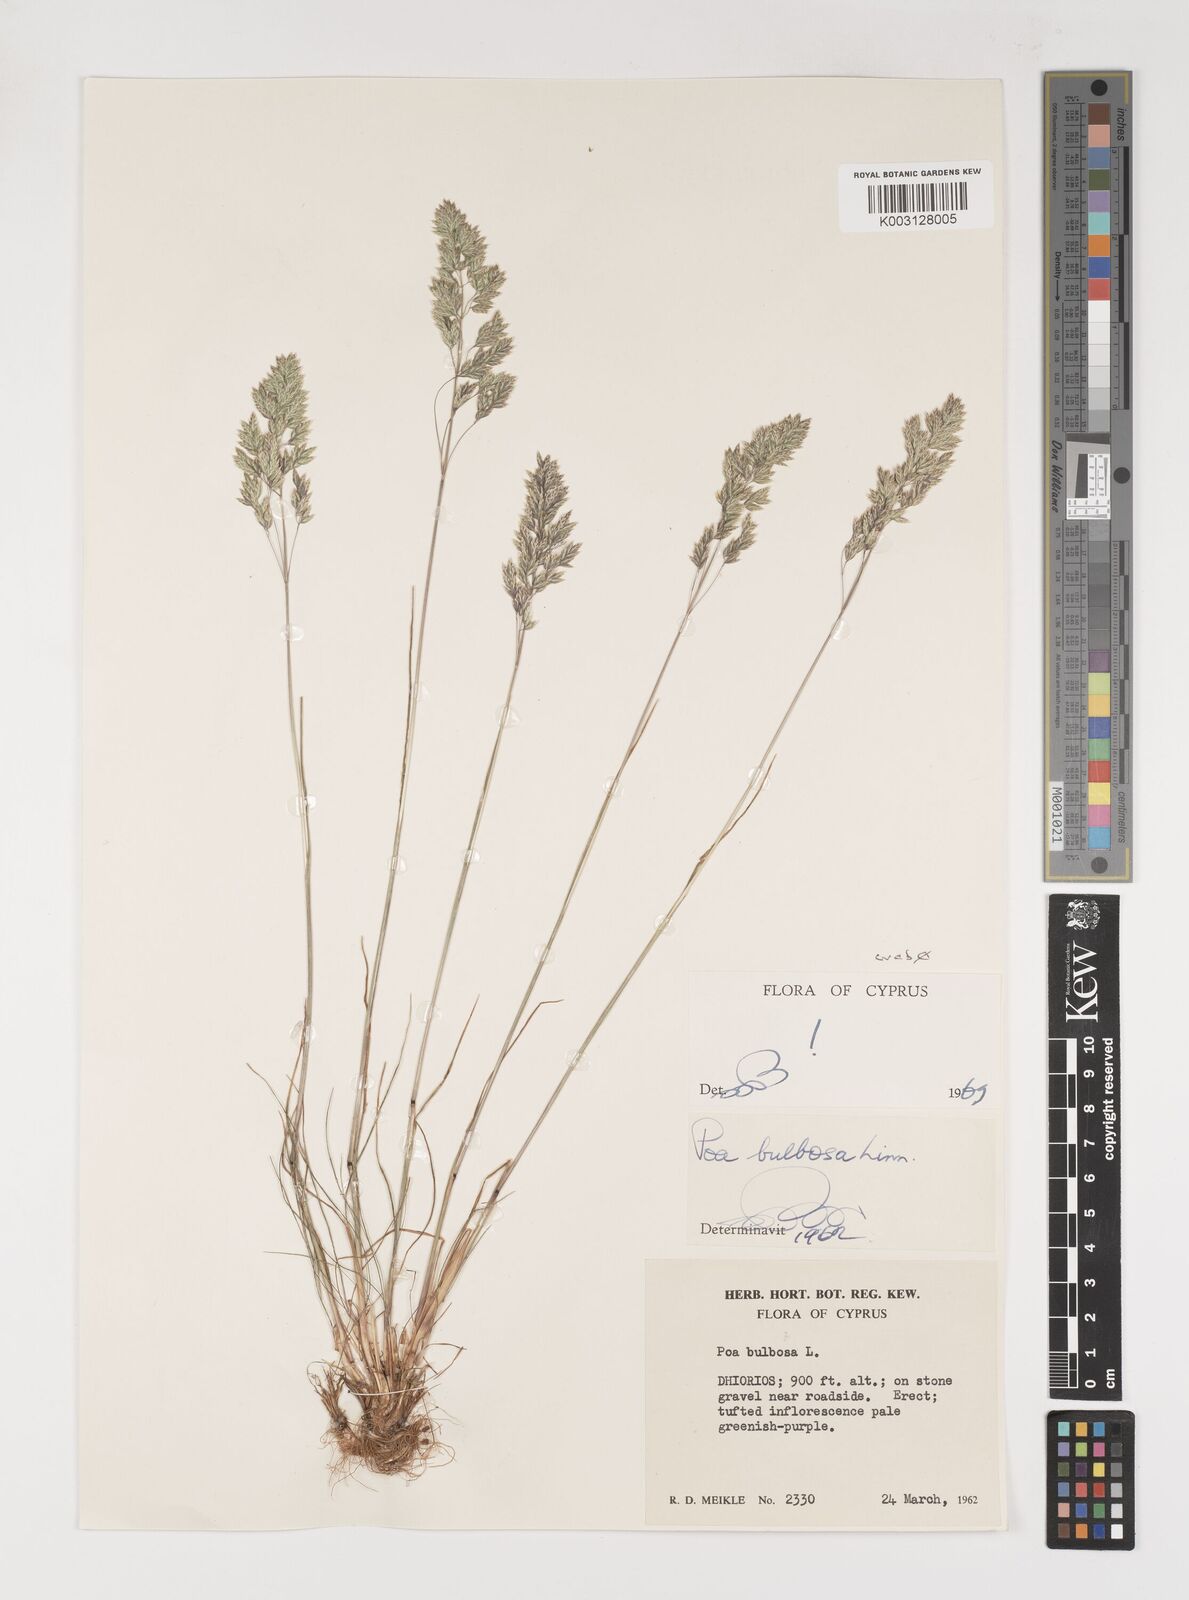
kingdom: Plantae
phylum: Tracheophyta
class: Liliopsida
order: Poales
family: Poaceae
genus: Poa
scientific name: Poa bulbosa
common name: Bulbous bluegrass
